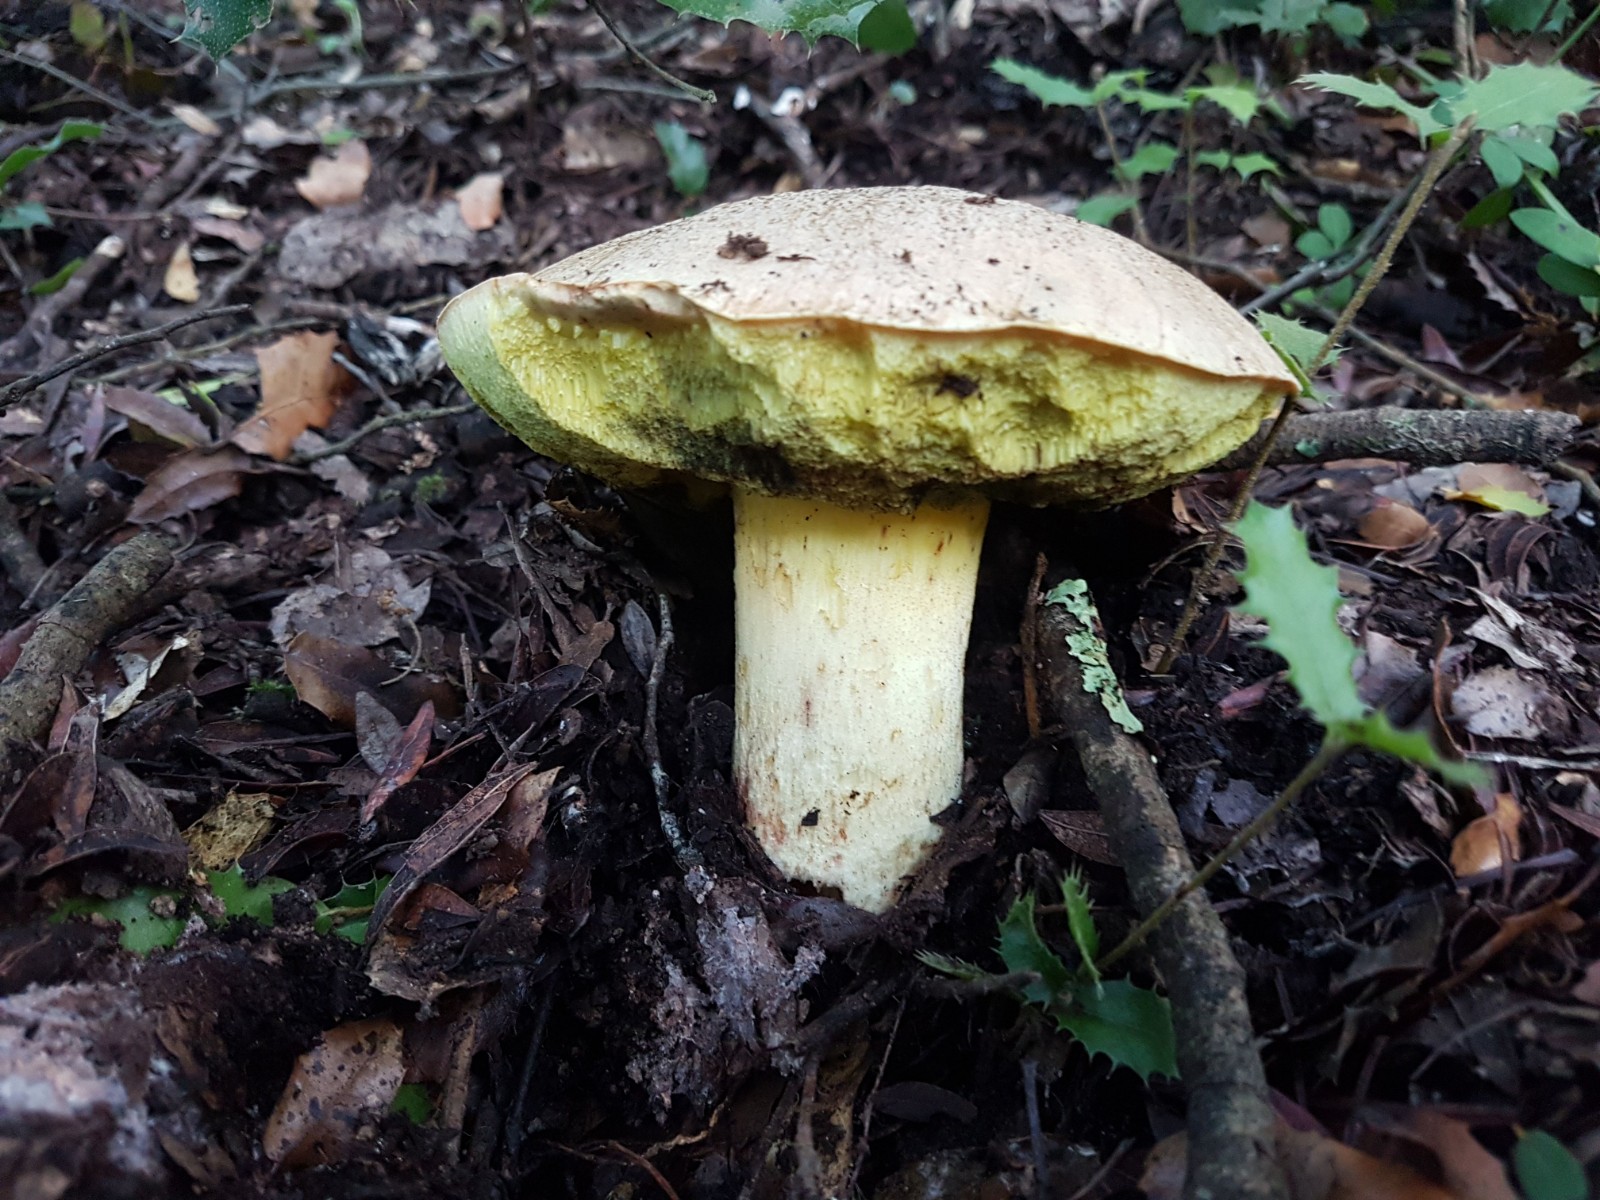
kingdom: Fungi
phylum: Basidiomycota
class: Agaricomycetes
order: Boletales
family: Boletaceae
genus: Hemileccinum
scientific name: Hemileccinum impolitum
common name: bleg rørhat
